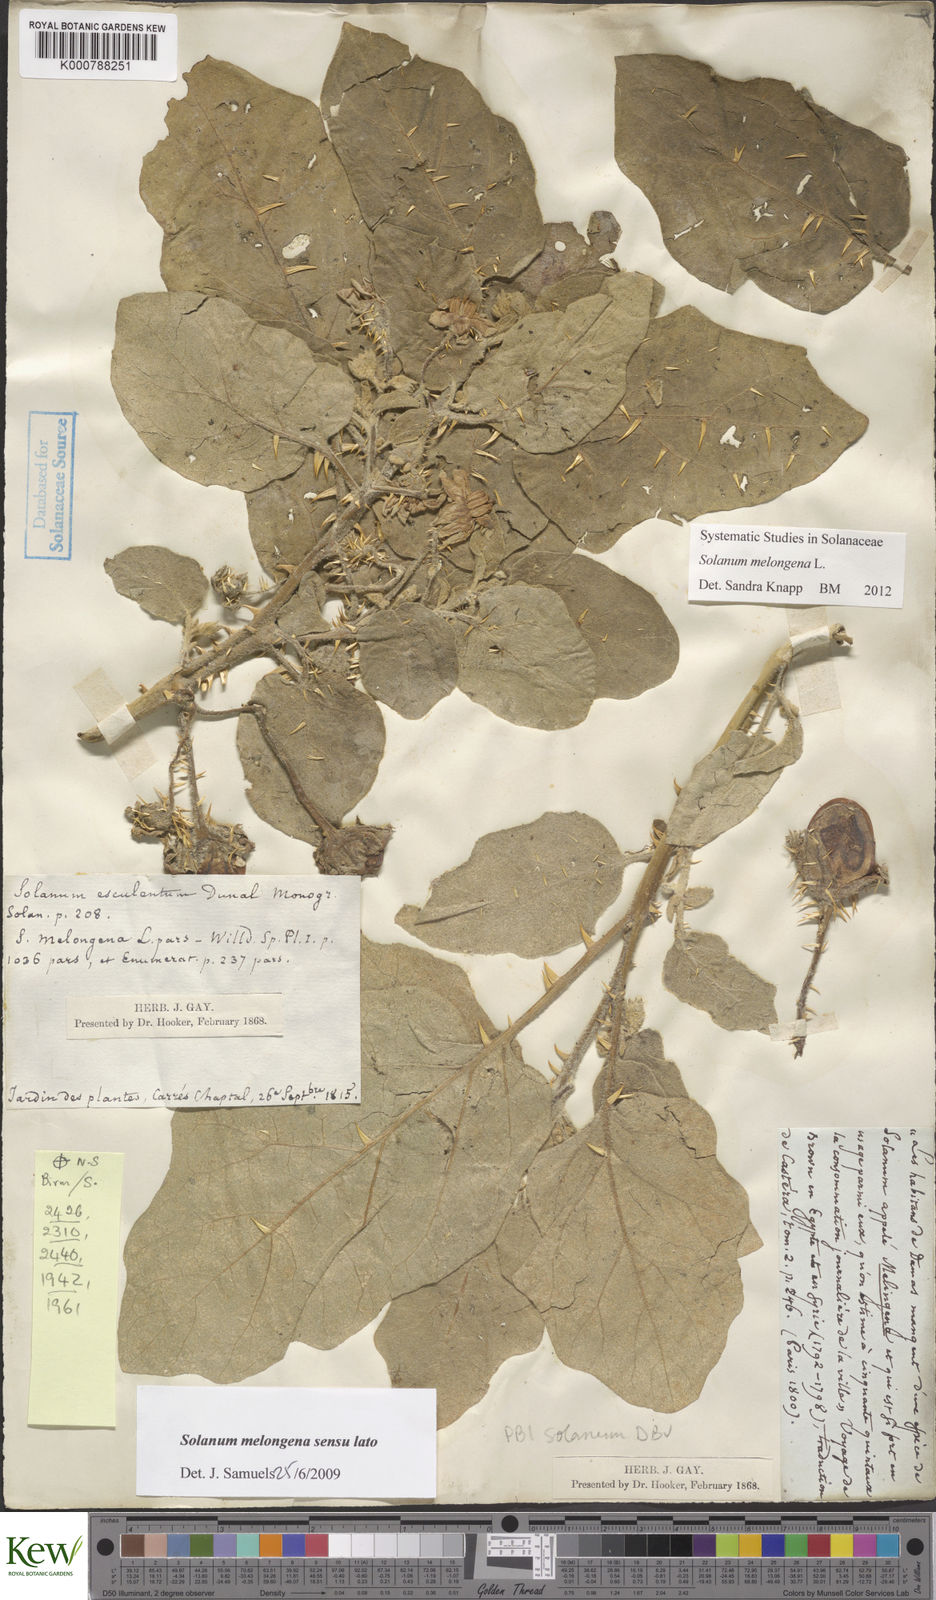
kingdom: Plantae
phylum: Tracheophyta
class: Magnoliopsida
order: Solanales
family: Solanaceae
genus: Solanum
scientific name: Solanum melongena
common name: Eggplant
